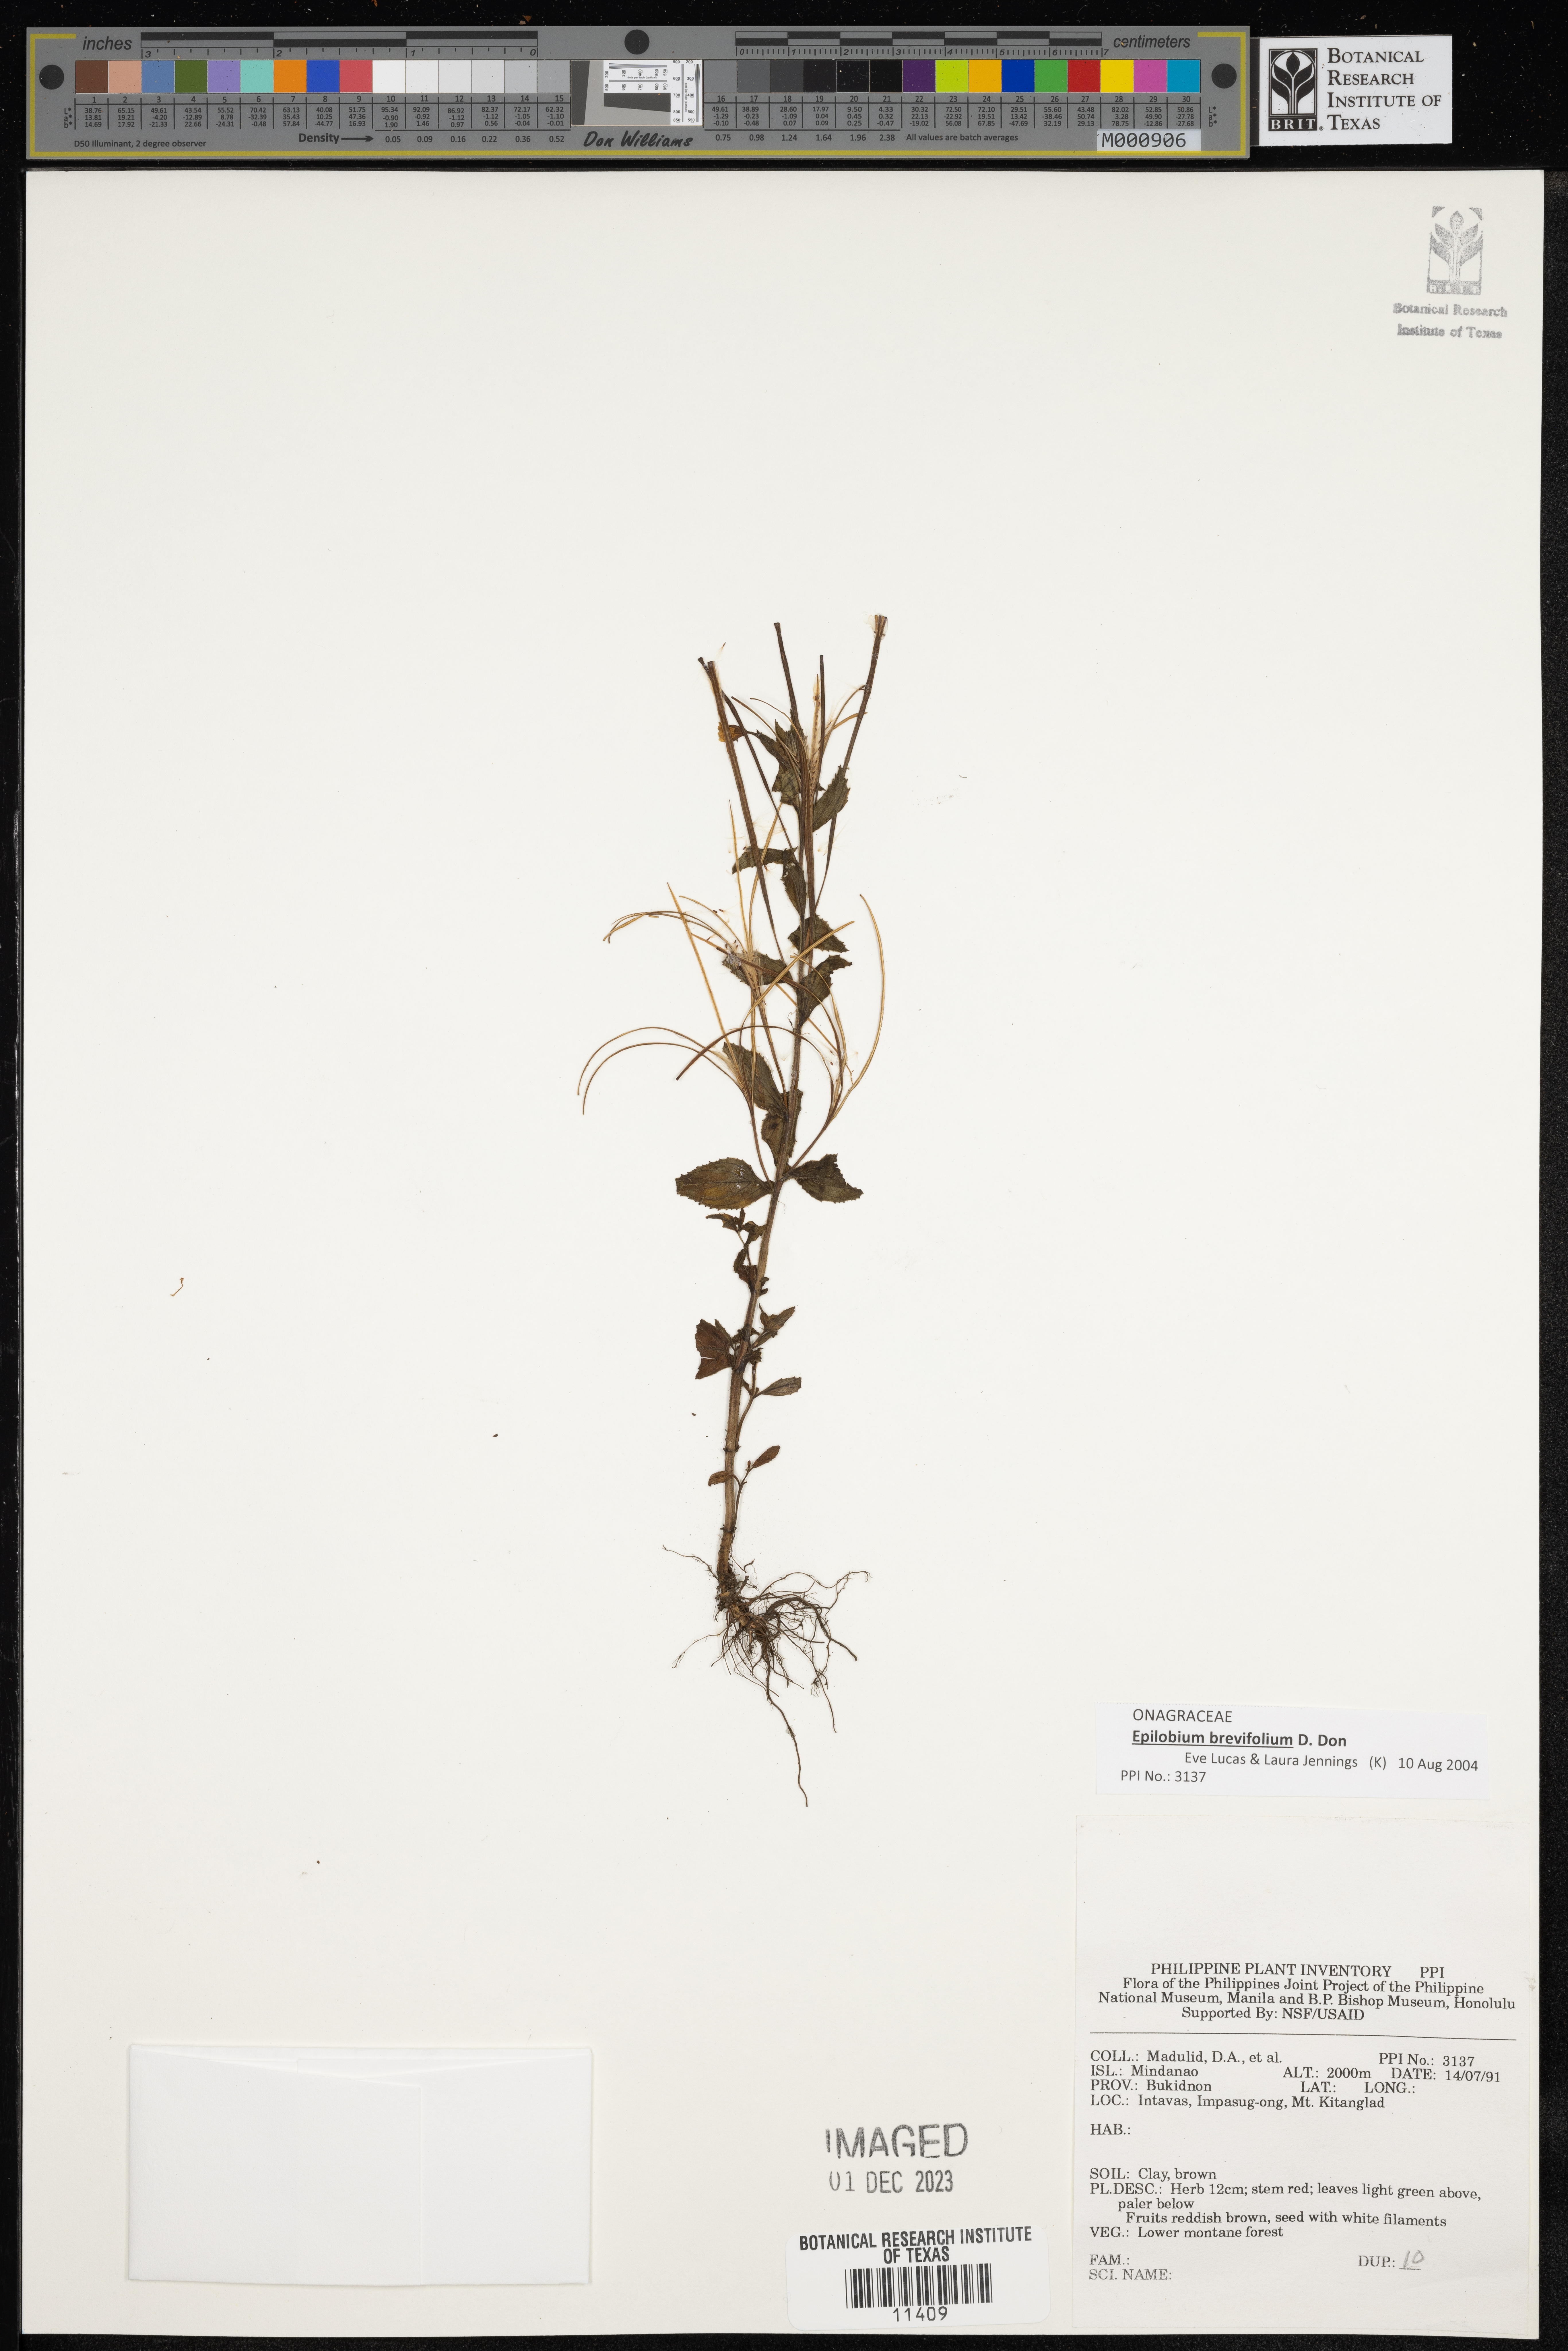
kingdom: Plantae
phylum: Tracheophyta
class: Magnoliopsida
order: Myrtales
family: Onagraceae
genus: Epilobium
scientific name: Epilobium
